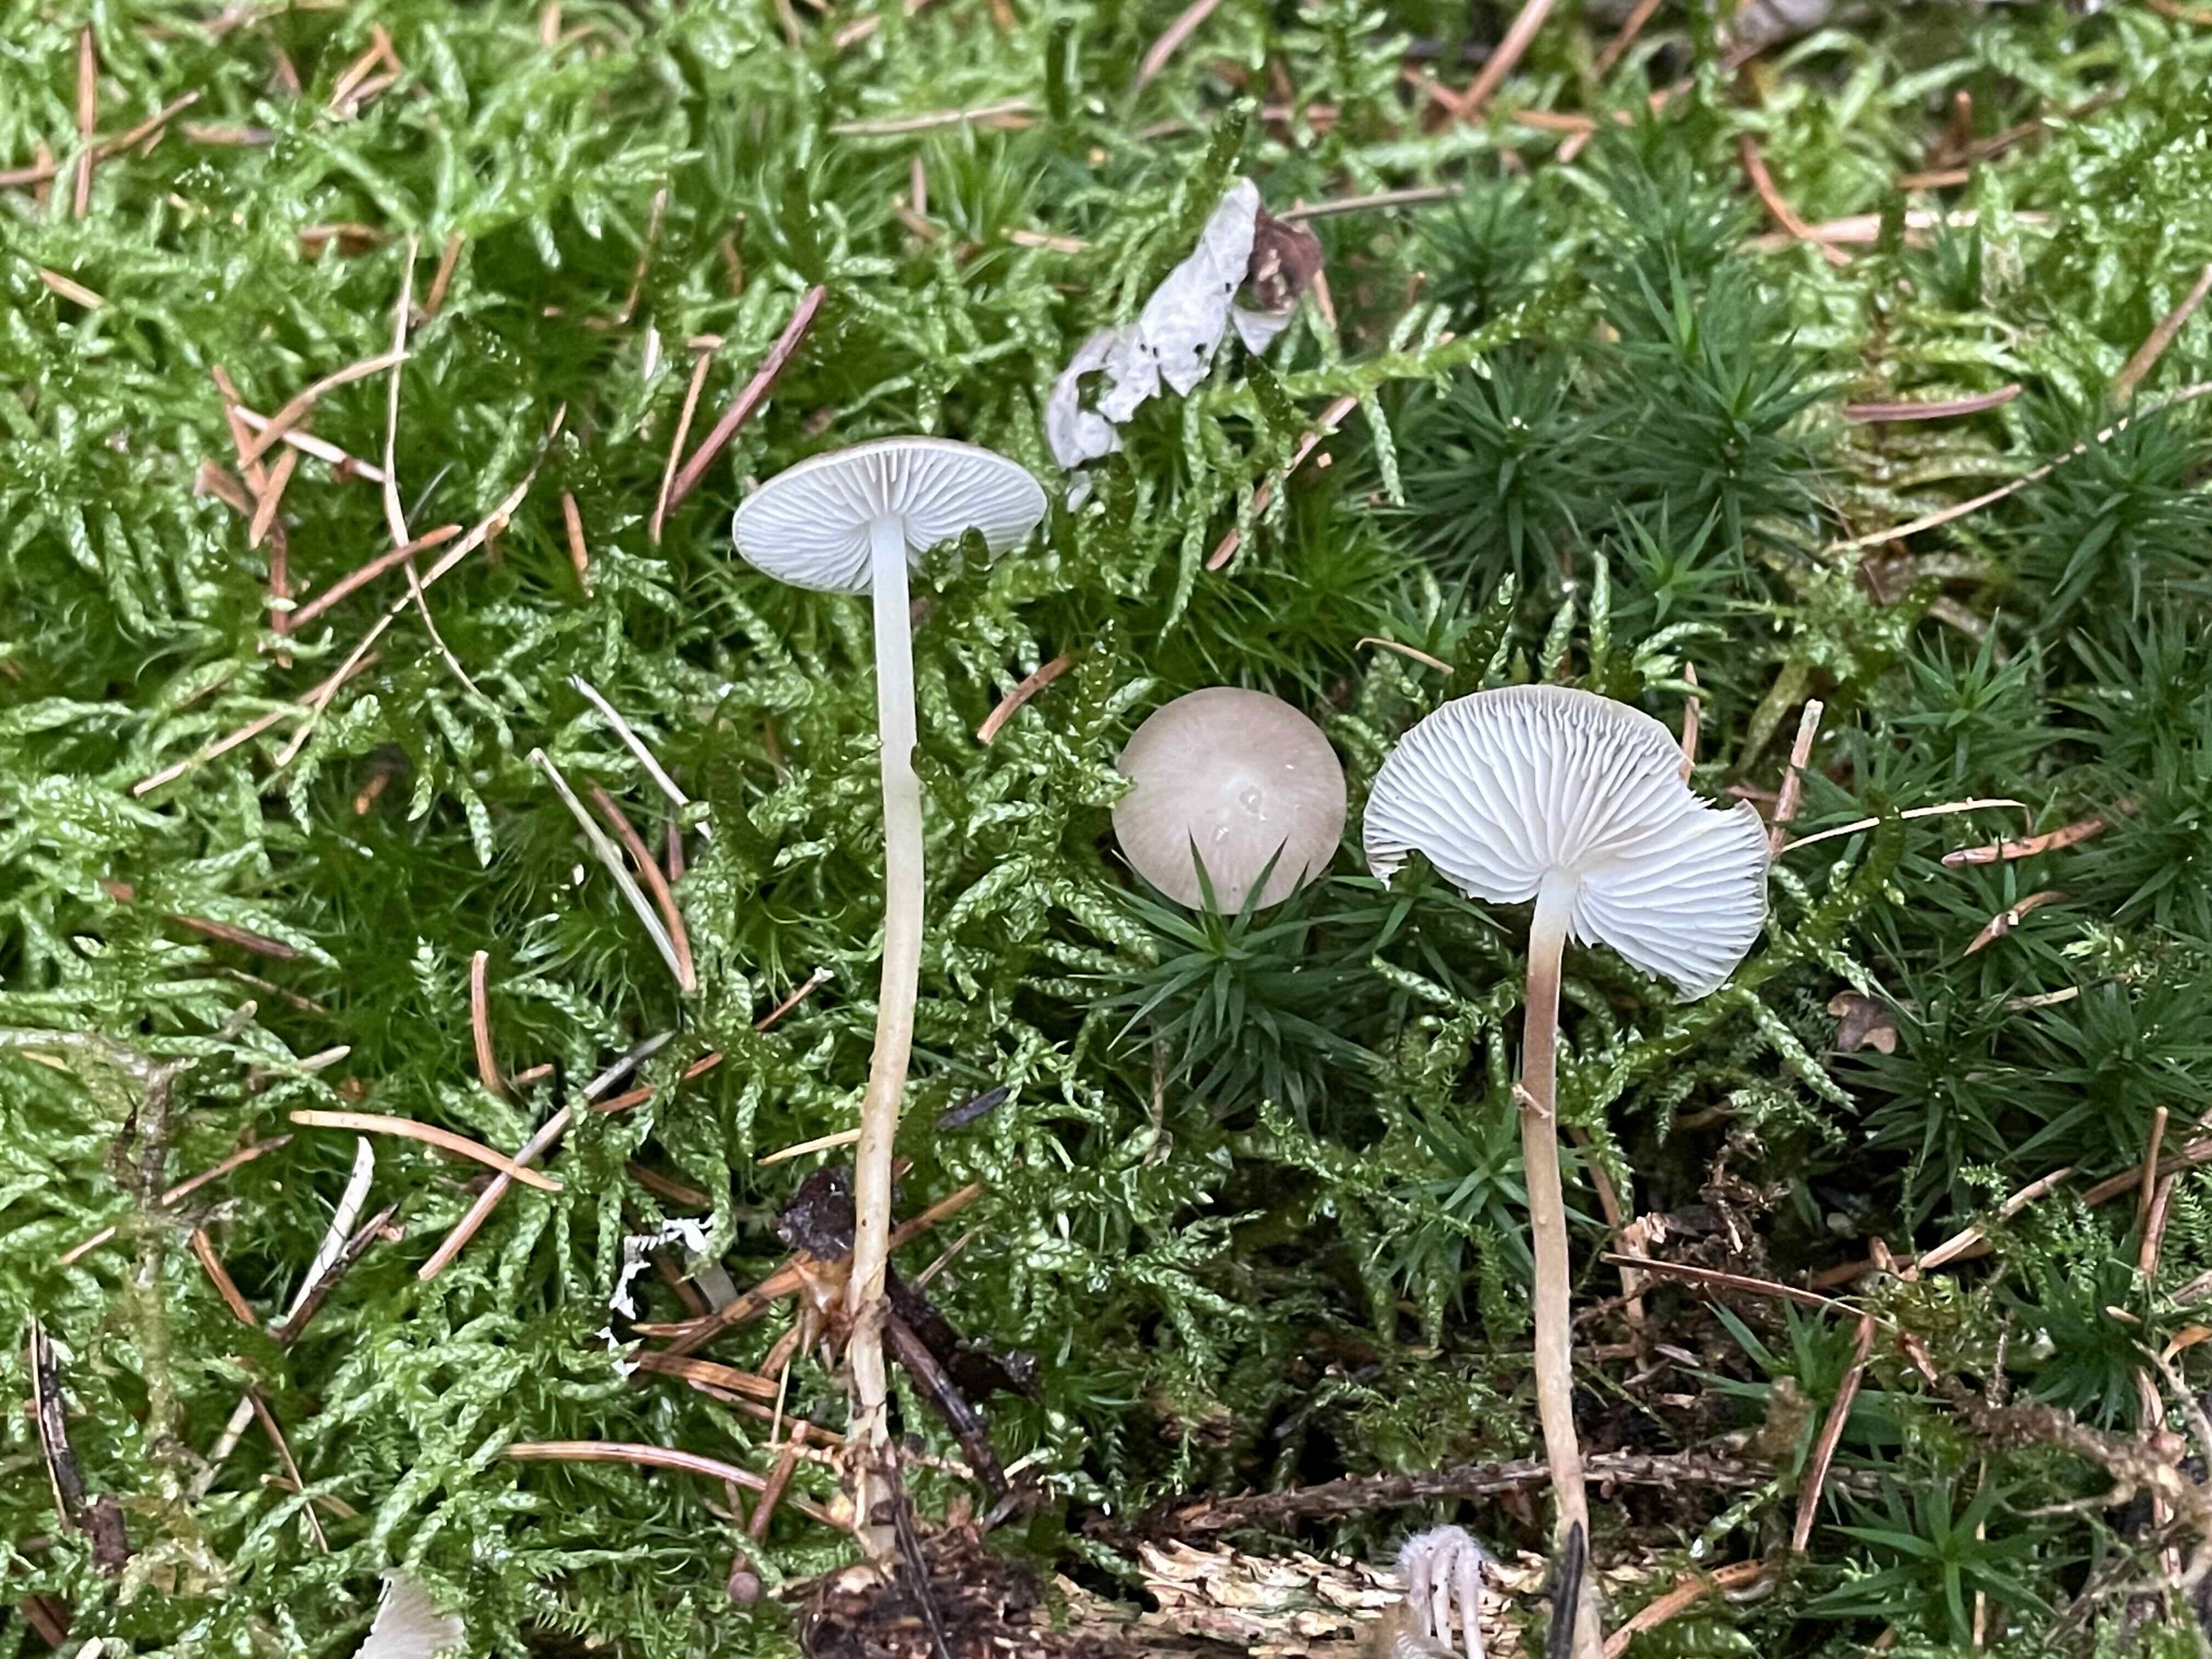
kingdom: Fungi
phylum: Basidiomycota
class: Agaricomycetes
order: Agaricales
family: Physalacriaceae
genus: Strobilurus
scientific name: Strobilurus esculentus
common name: gran-koglehat
